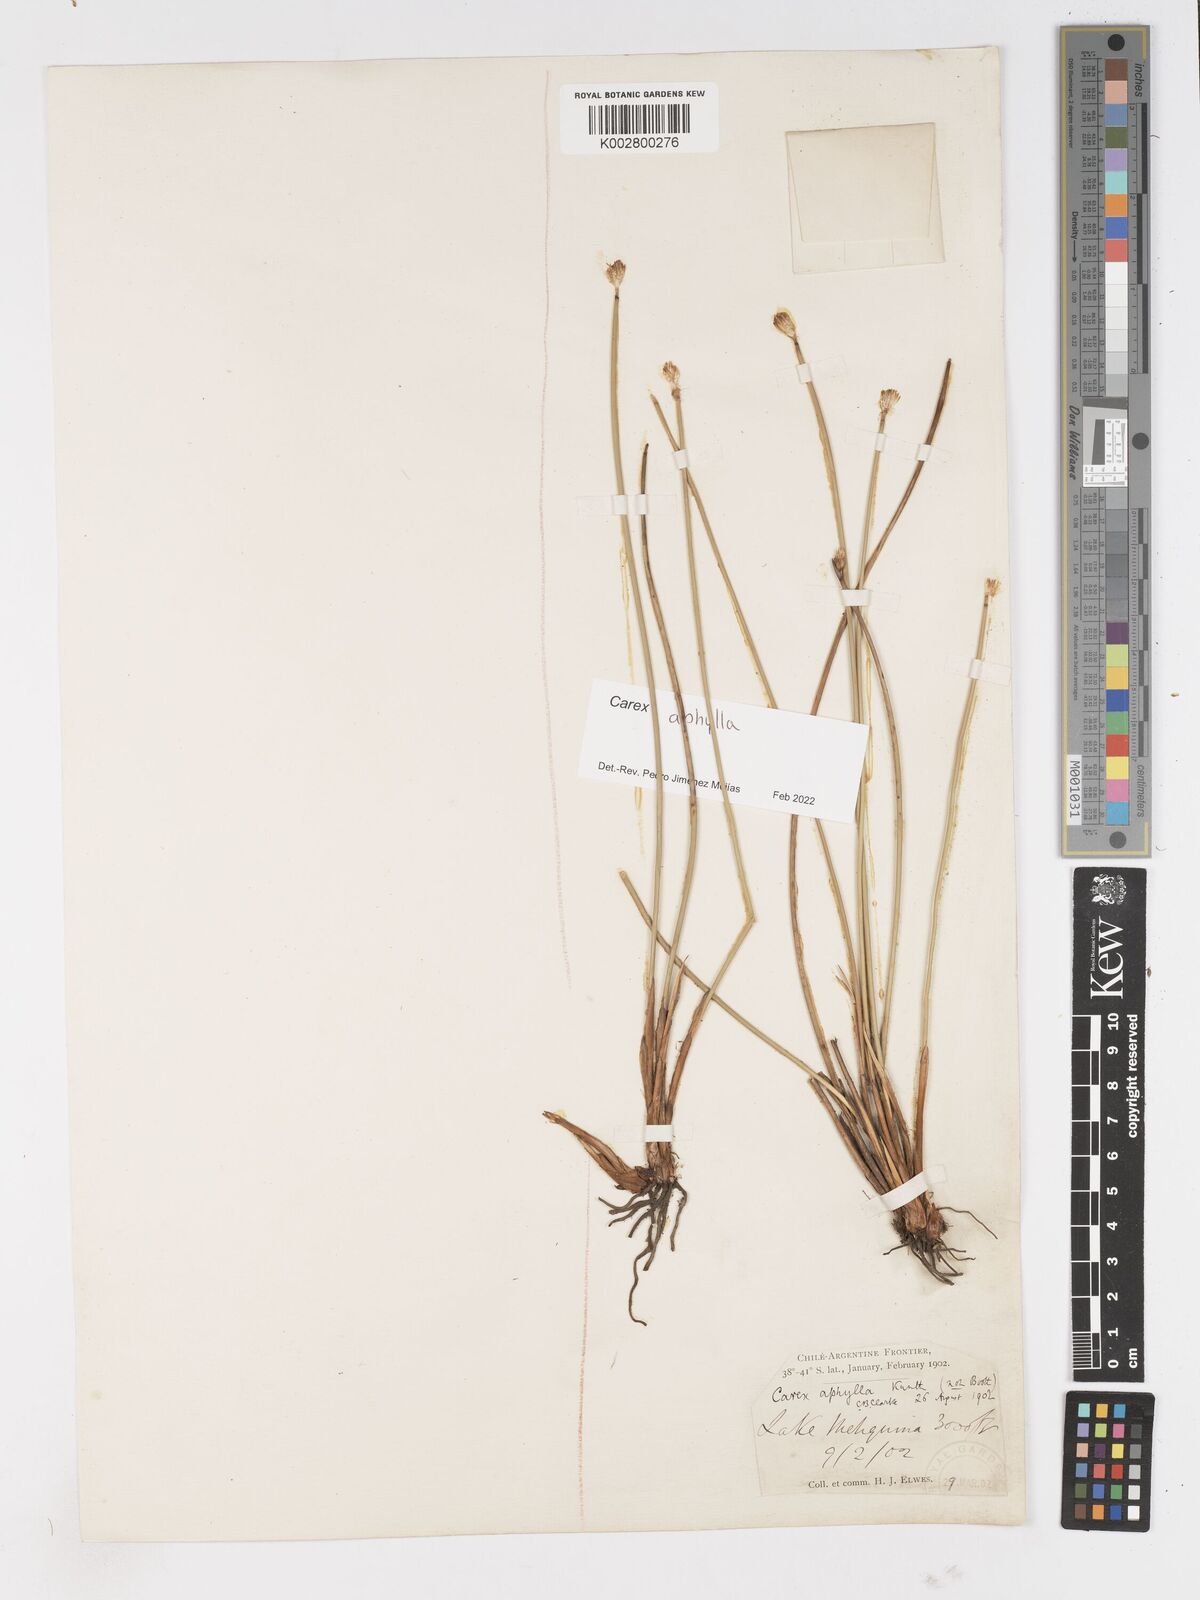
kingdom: Plantae
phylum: Tracheophyta
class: Liliopsida
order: Poales
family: Cyperaceae
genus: Carex
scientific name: Carex aphylla
